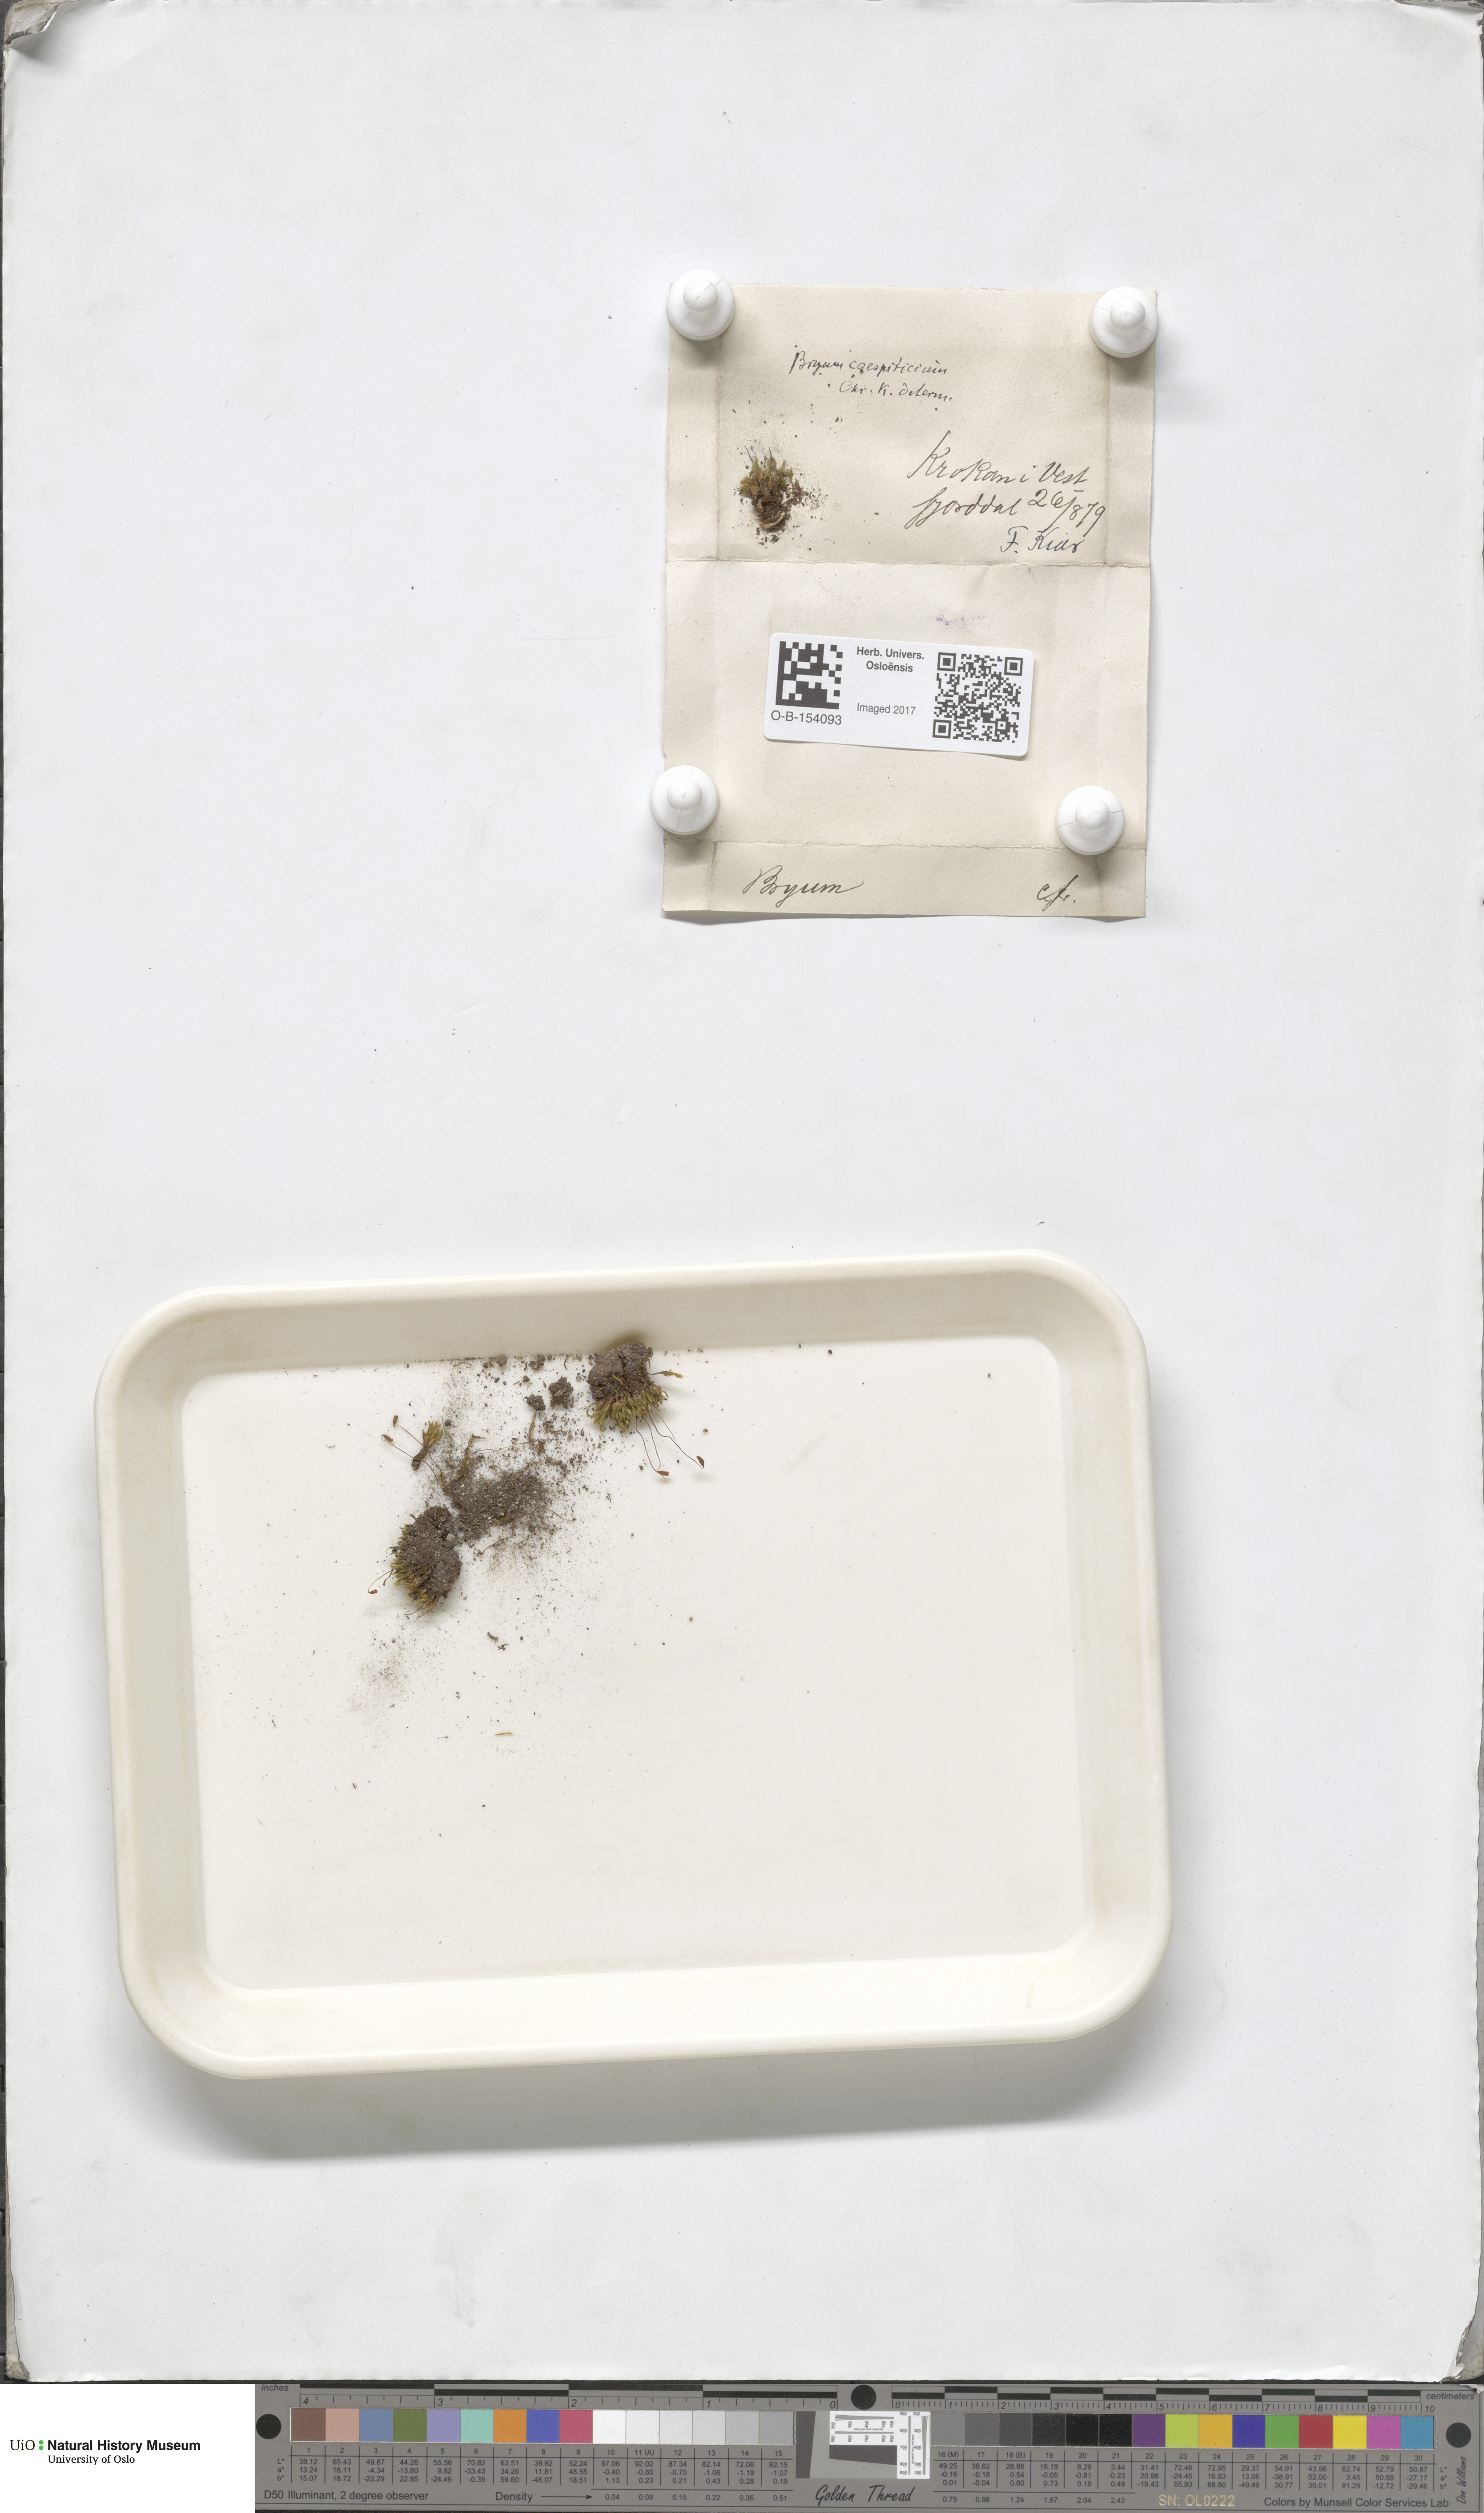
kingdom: Plantae
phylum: Bryophyta
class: Bryopsida
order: Bryales
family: Bryaceae
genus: Gemmabryum
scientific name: Gemmabryum caespiticium
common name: Handbell moss
